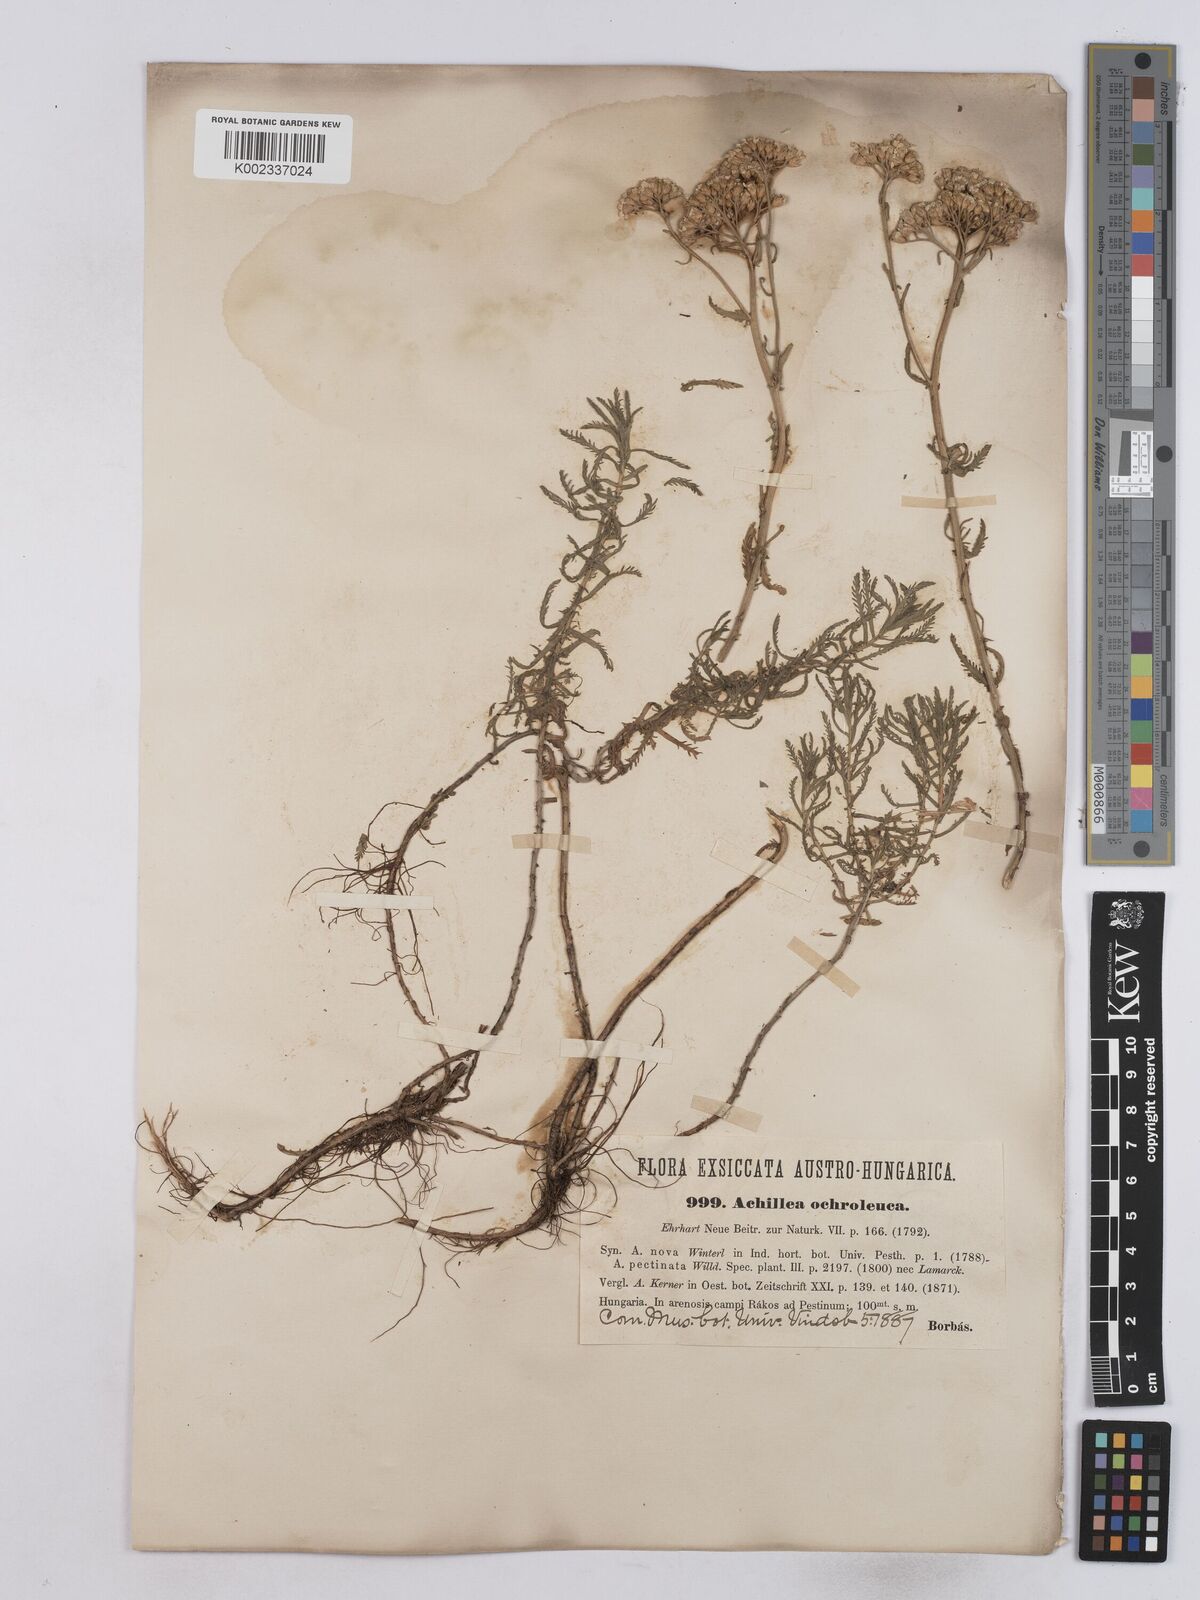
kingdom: Plantae
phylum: Tracheophyta
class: Magnoliopsida
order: Asterales
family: Asteraceae
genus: Achillea
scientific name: Achillea nobilis
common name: Noble yarrow
